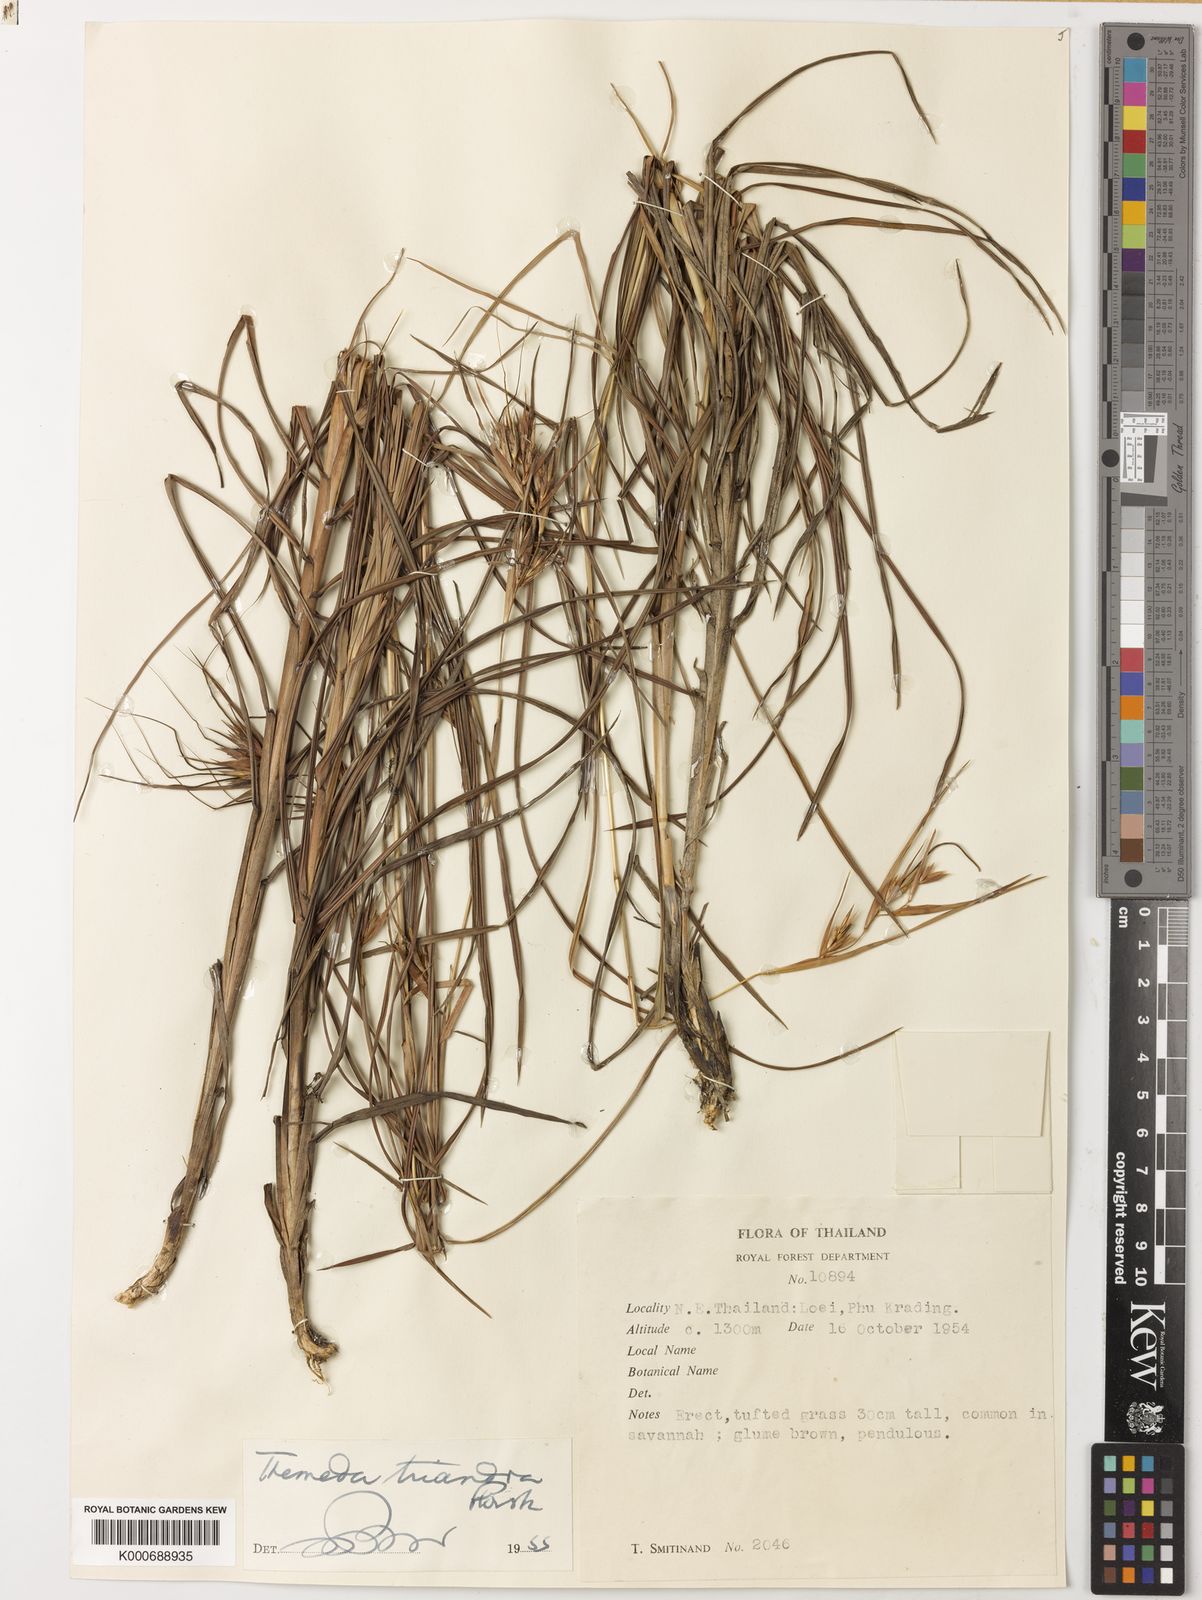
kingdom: Plantae
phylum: Tracheophyta
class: Liliopsida
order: Poales
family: Poaceae
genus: Themeda
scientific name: Themeda triandra
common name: Kangaroo grass
